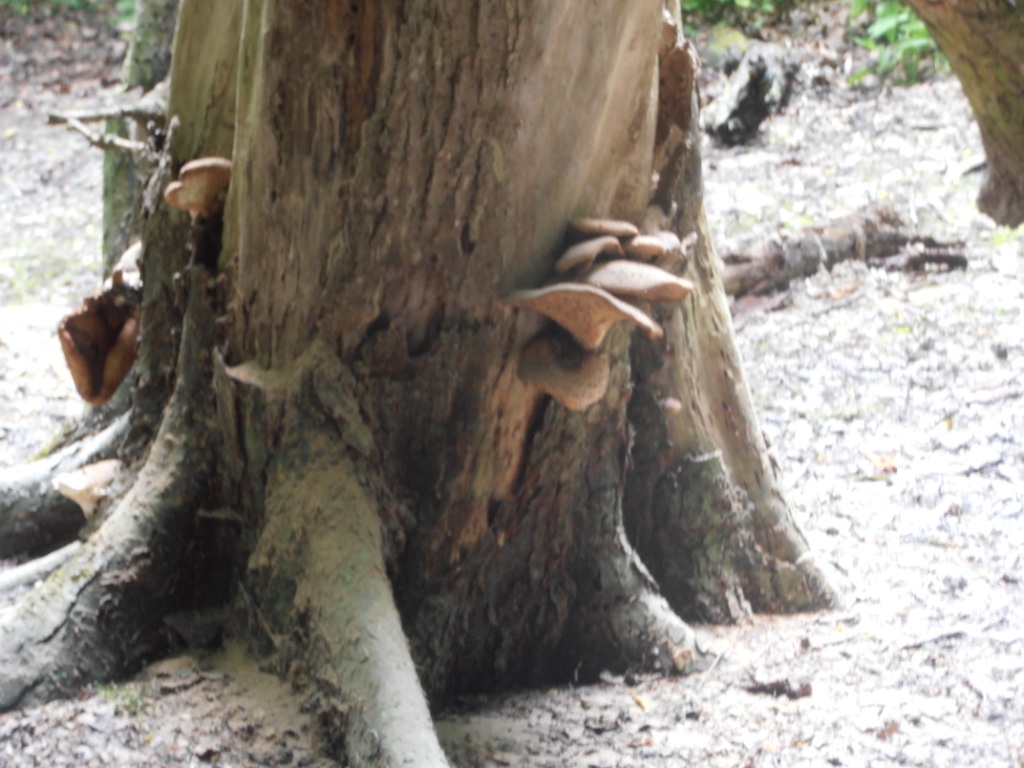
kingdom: Fungi
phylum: Basidiomycota
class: Agaricomycetes
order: Polyporales
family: Polyporaceae
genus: Cerioporus
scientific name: Cerioporus squamosus
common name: skællet stilkporesvamp
